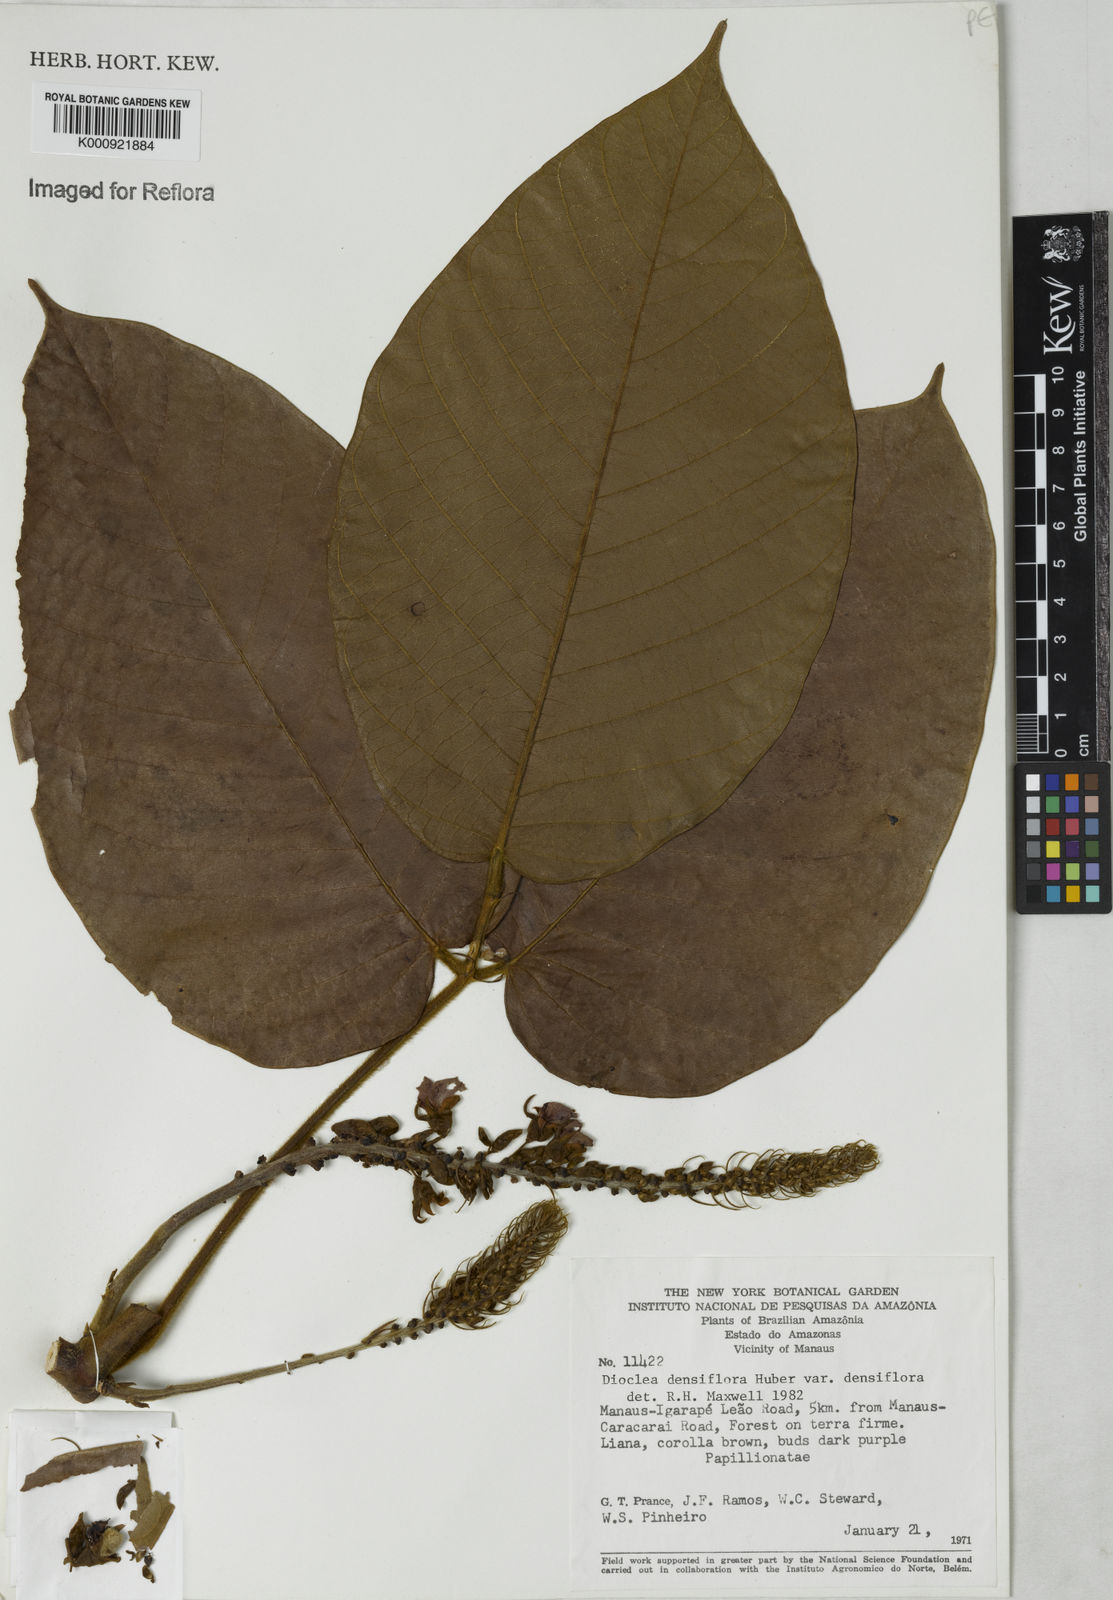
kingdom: Plantae
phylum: Tracheophyta
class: Magnoliopsida
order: Fabales
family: Fabaceae
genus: Macropsychanthus
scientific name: Macropsychanthus megacarpus
